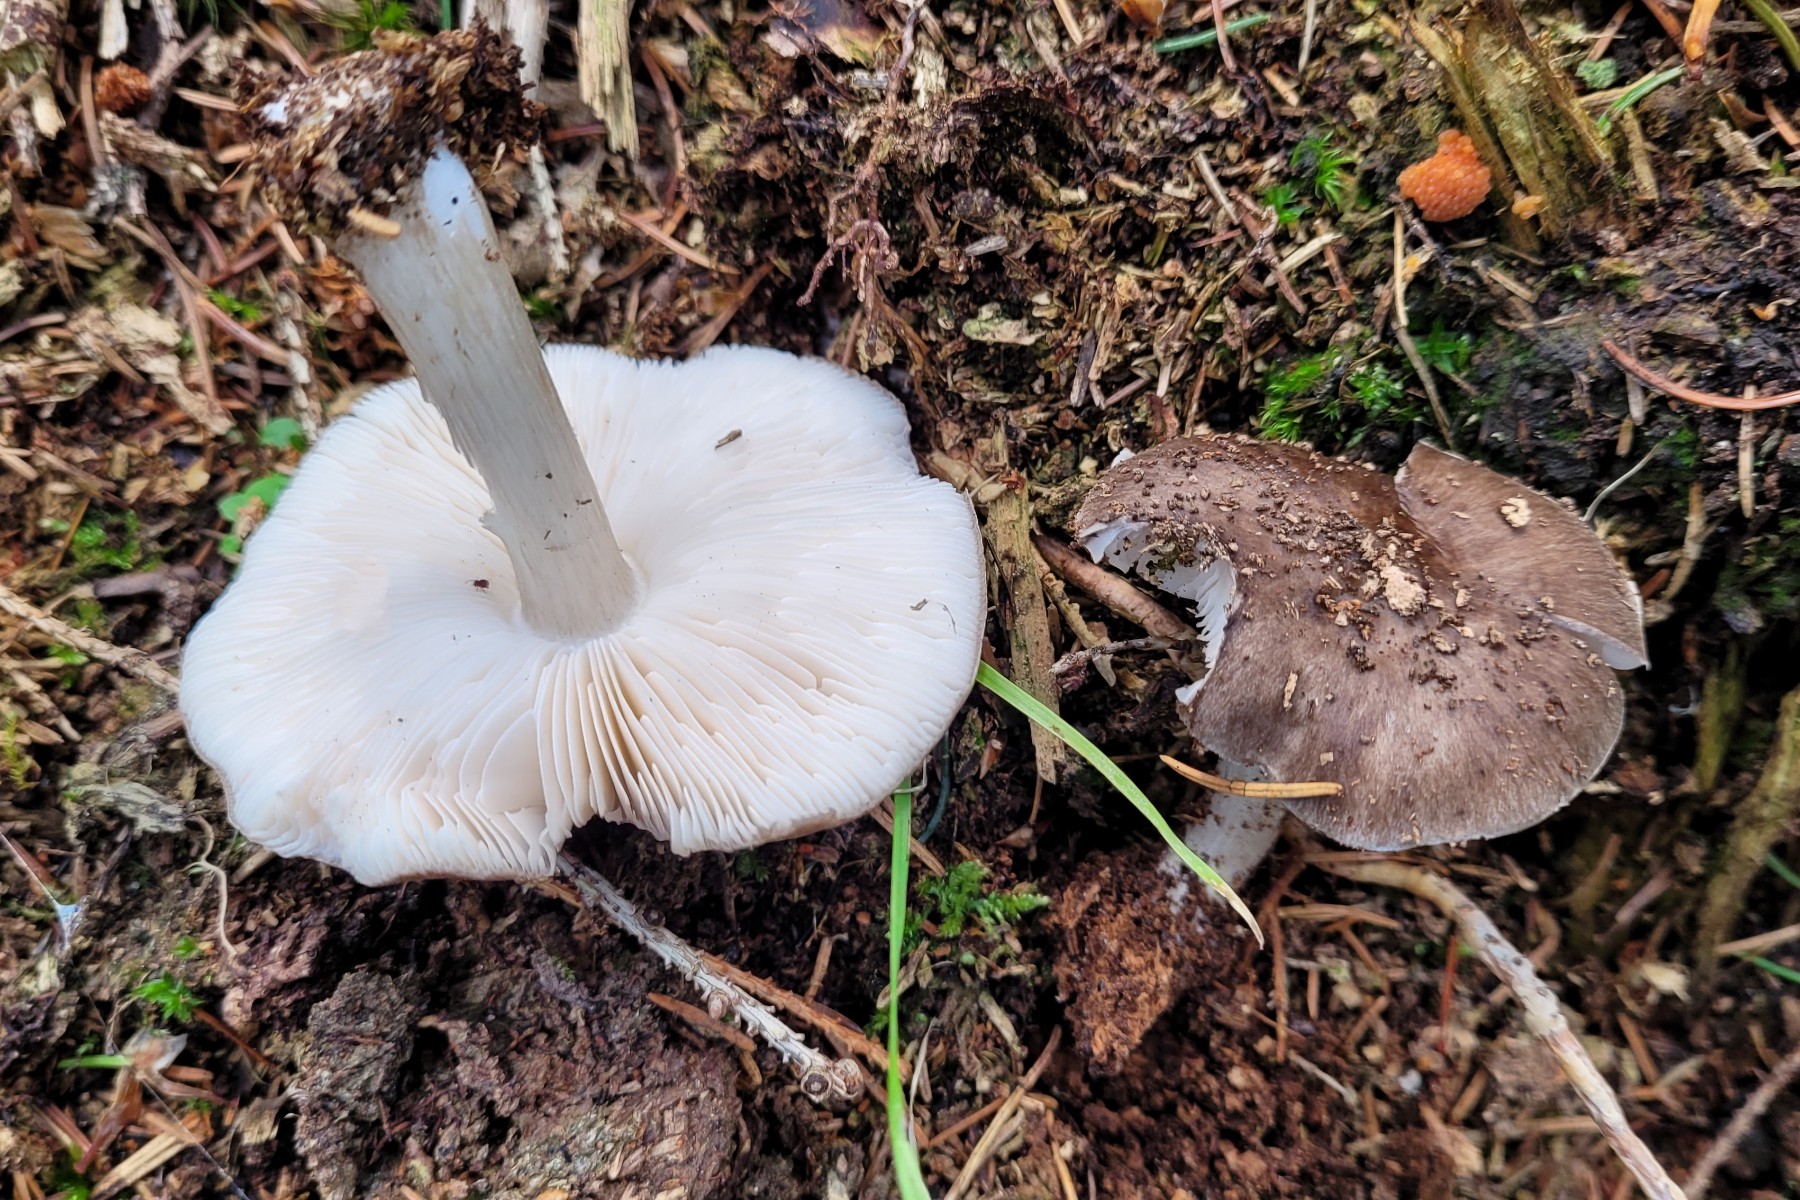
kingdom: Fungi
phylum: Basidiomycota
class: Agaricomycetes
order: Agaricales
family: Pluteaceae
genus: Pluteus
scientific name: Pluteus pouzarianus
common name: plantage-skærmhat
